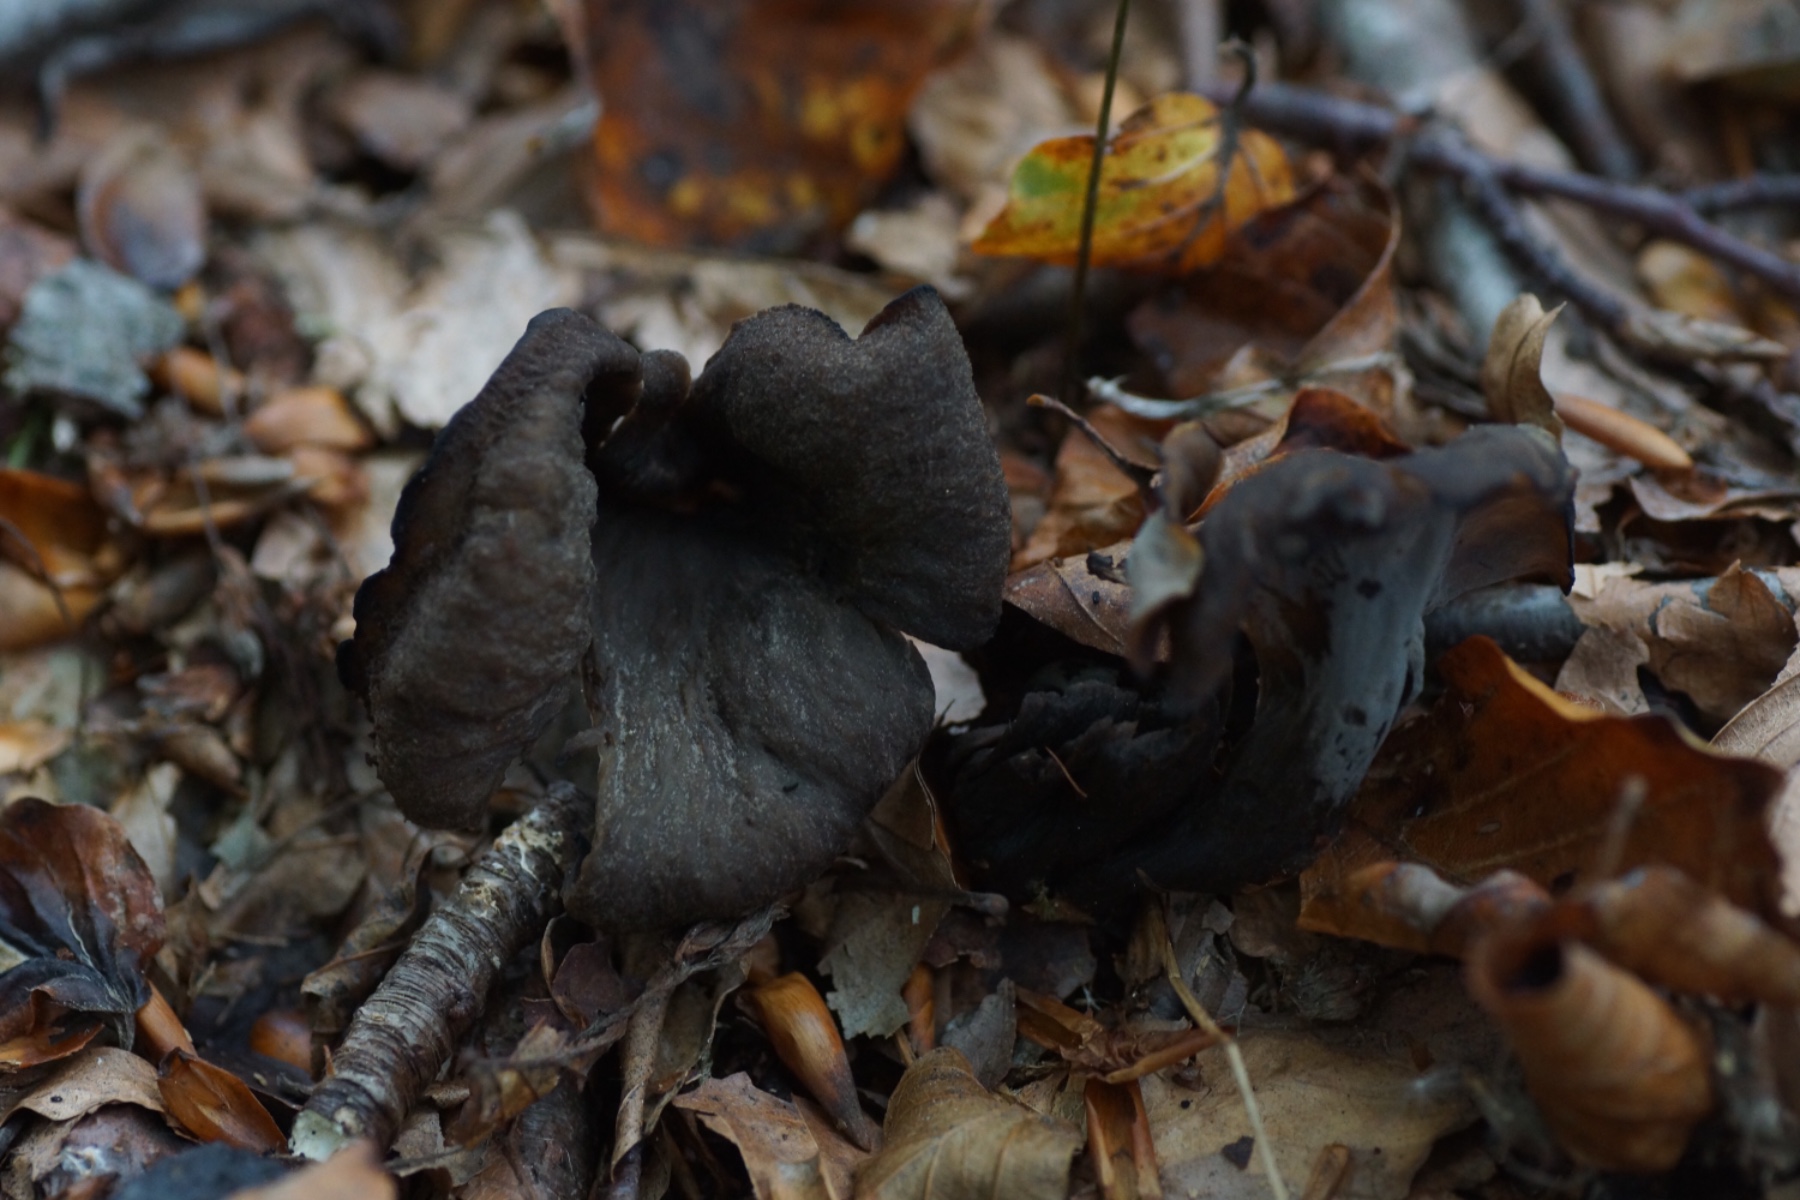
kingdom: Fungi
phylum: Basidiomycota
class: Agaricomycetes
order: Cantharellales
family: Hydnaceae
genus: Craterellus
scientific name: Craterellus cornucopioides
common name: trompetsvamp
